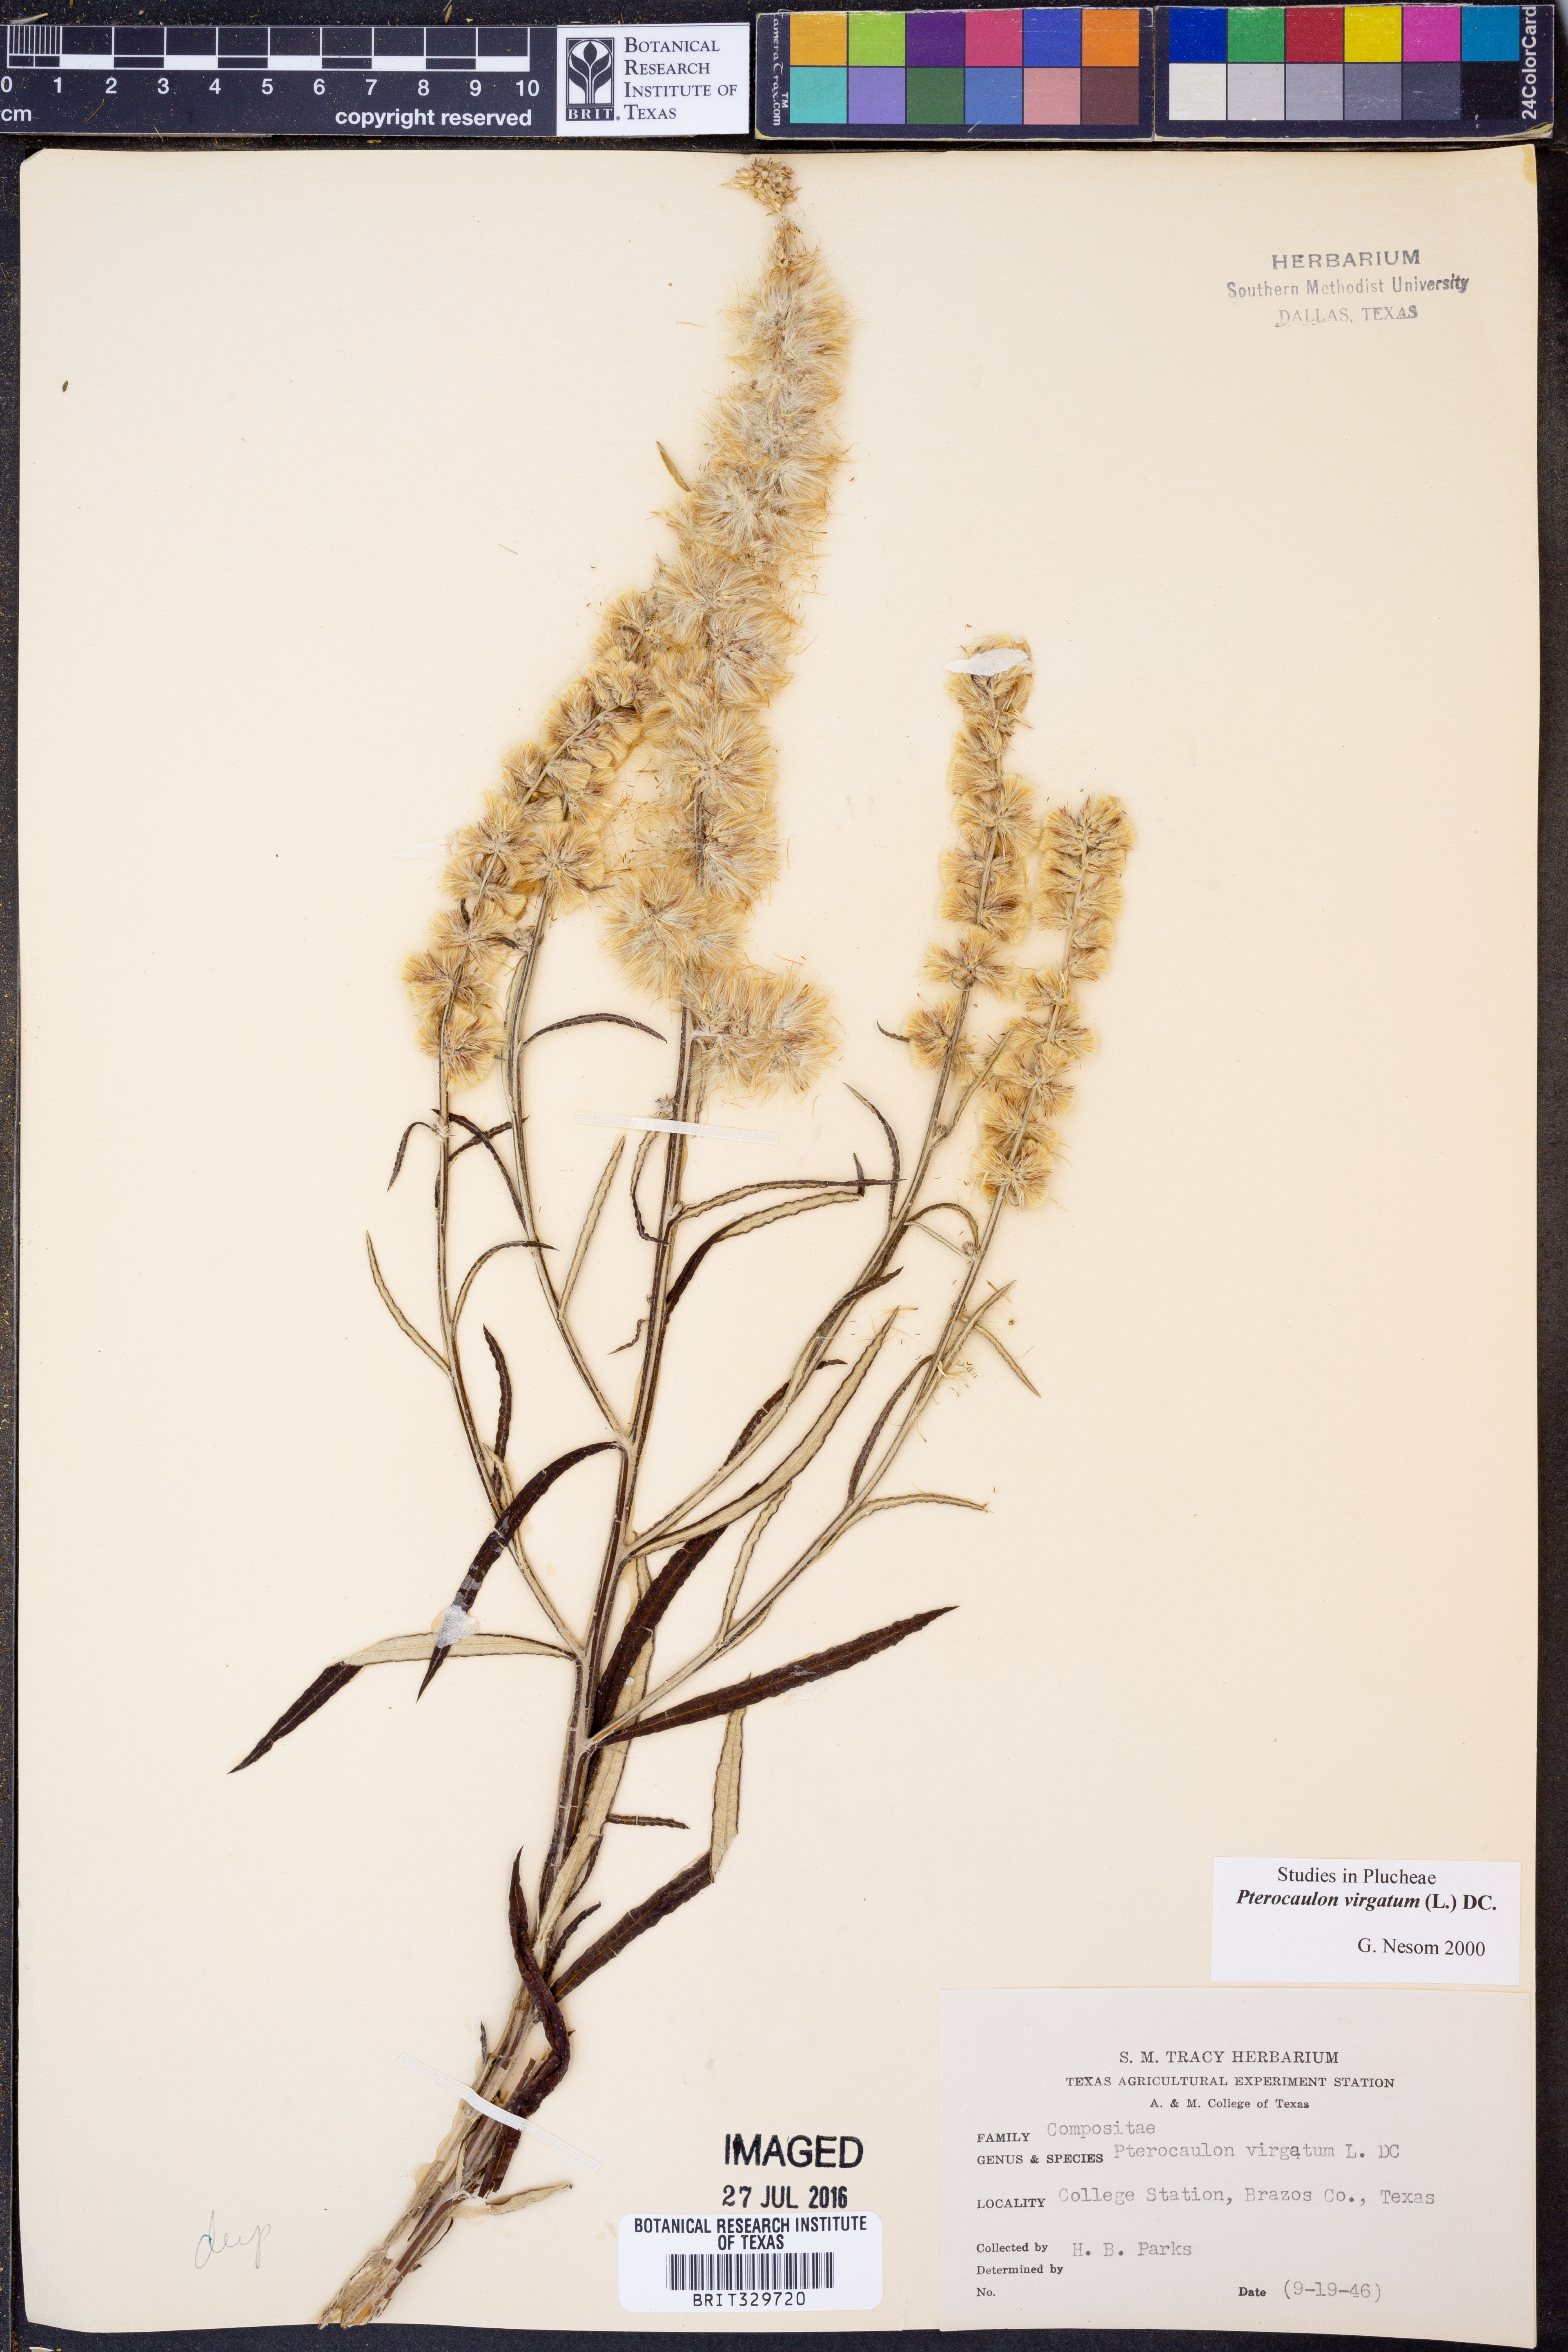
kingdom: Plantae
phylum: Tracheophyta
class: Magnoliopsida
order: Asterales
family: Asteraceae
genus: Pterocaulon
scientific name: Pterocaulon virgatum
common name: Wand blackroot
